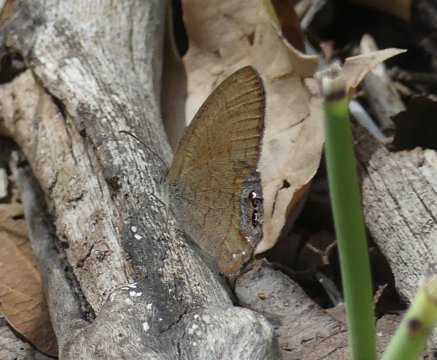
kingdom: Animalia
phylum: Arthropoda
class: Insecta
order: Lepidoptera
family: Nymphalidae
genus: Euptychia
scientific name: Euptychia pyracmon
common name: Nabokov's Satyr
